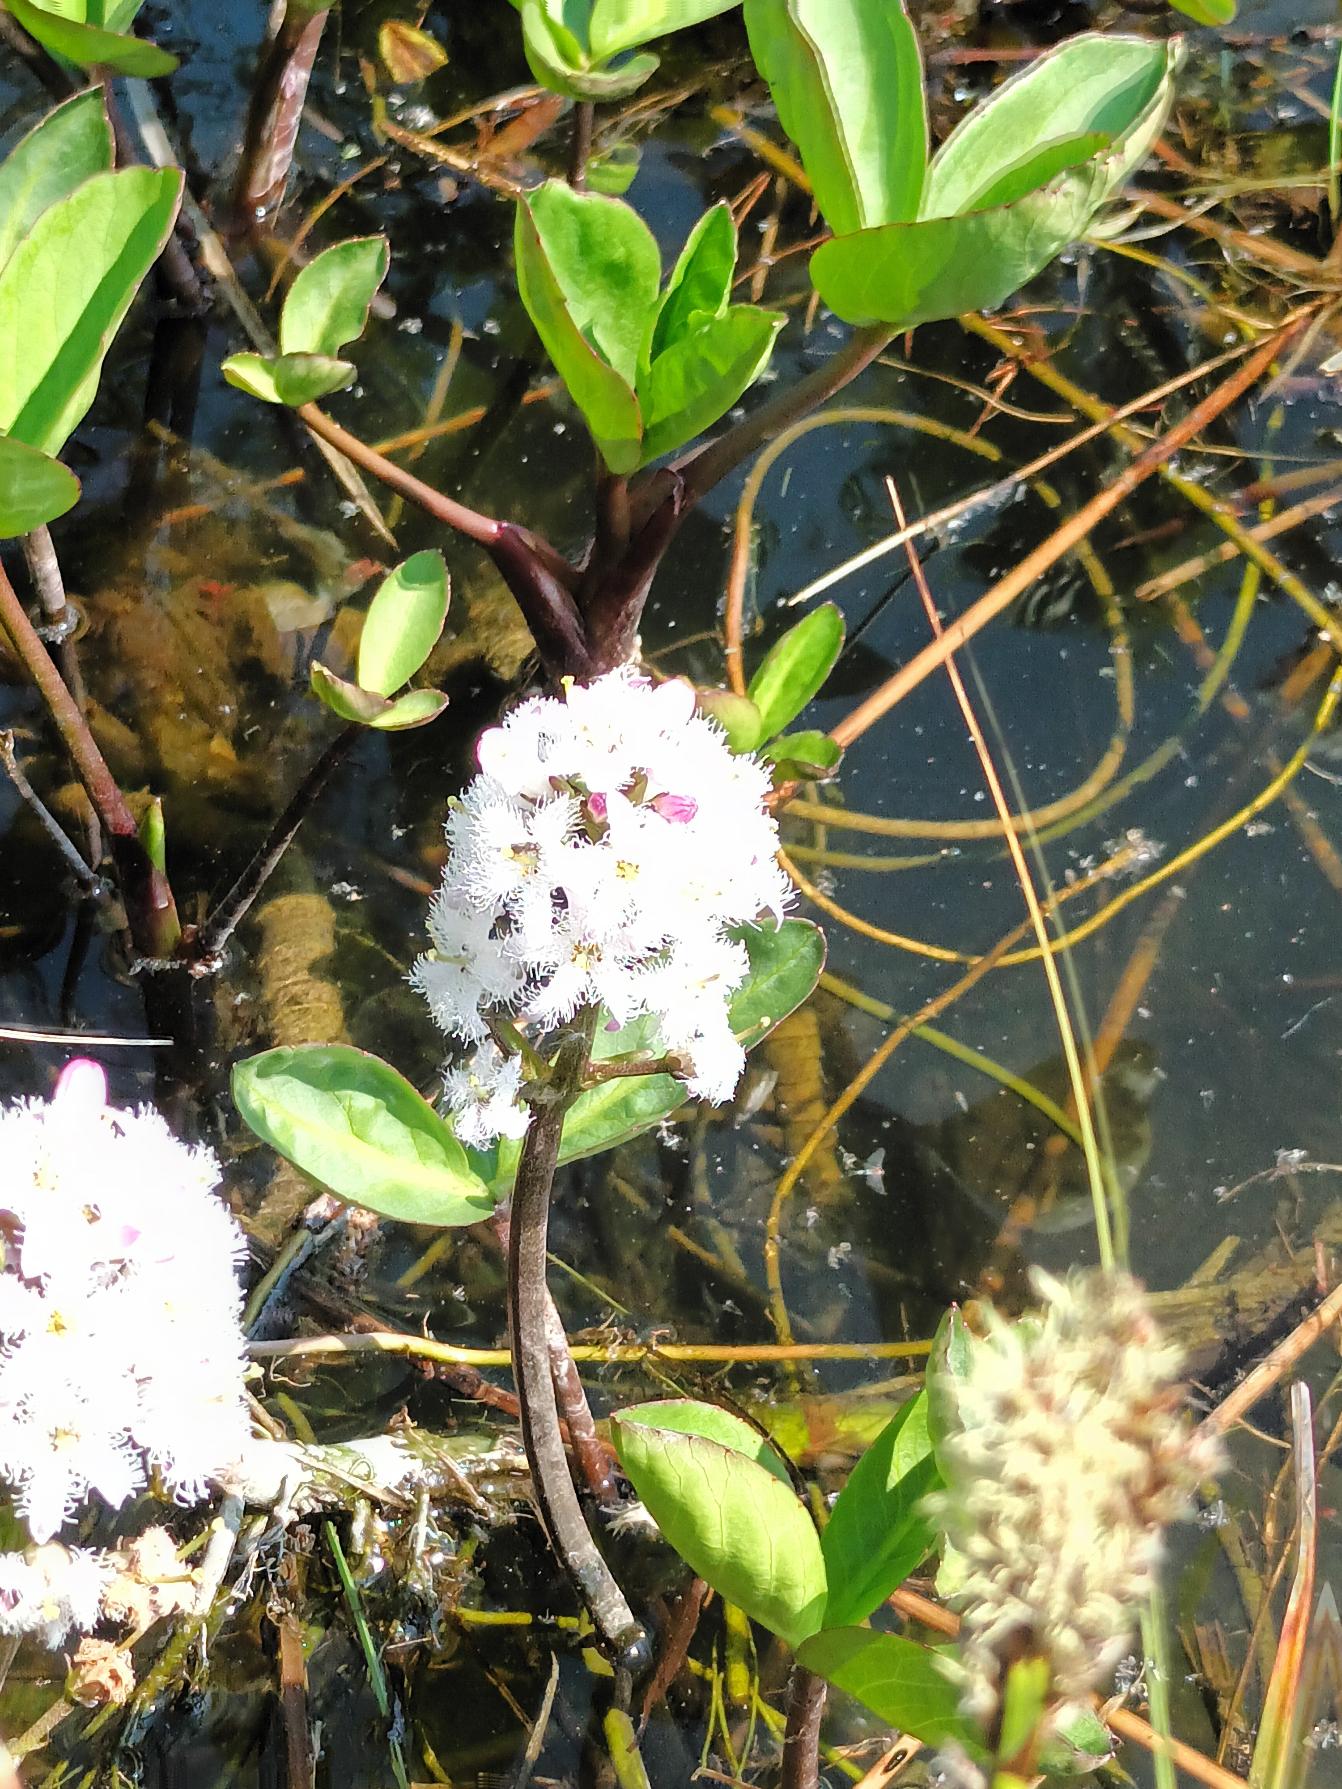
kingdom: Plantae
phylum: Tracheophyta
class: Magnoliopsida
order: Asterales
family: Menyanthaceae
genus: Menyanthes
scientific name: Menyanthes trifoliata
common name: Bukkeblad
